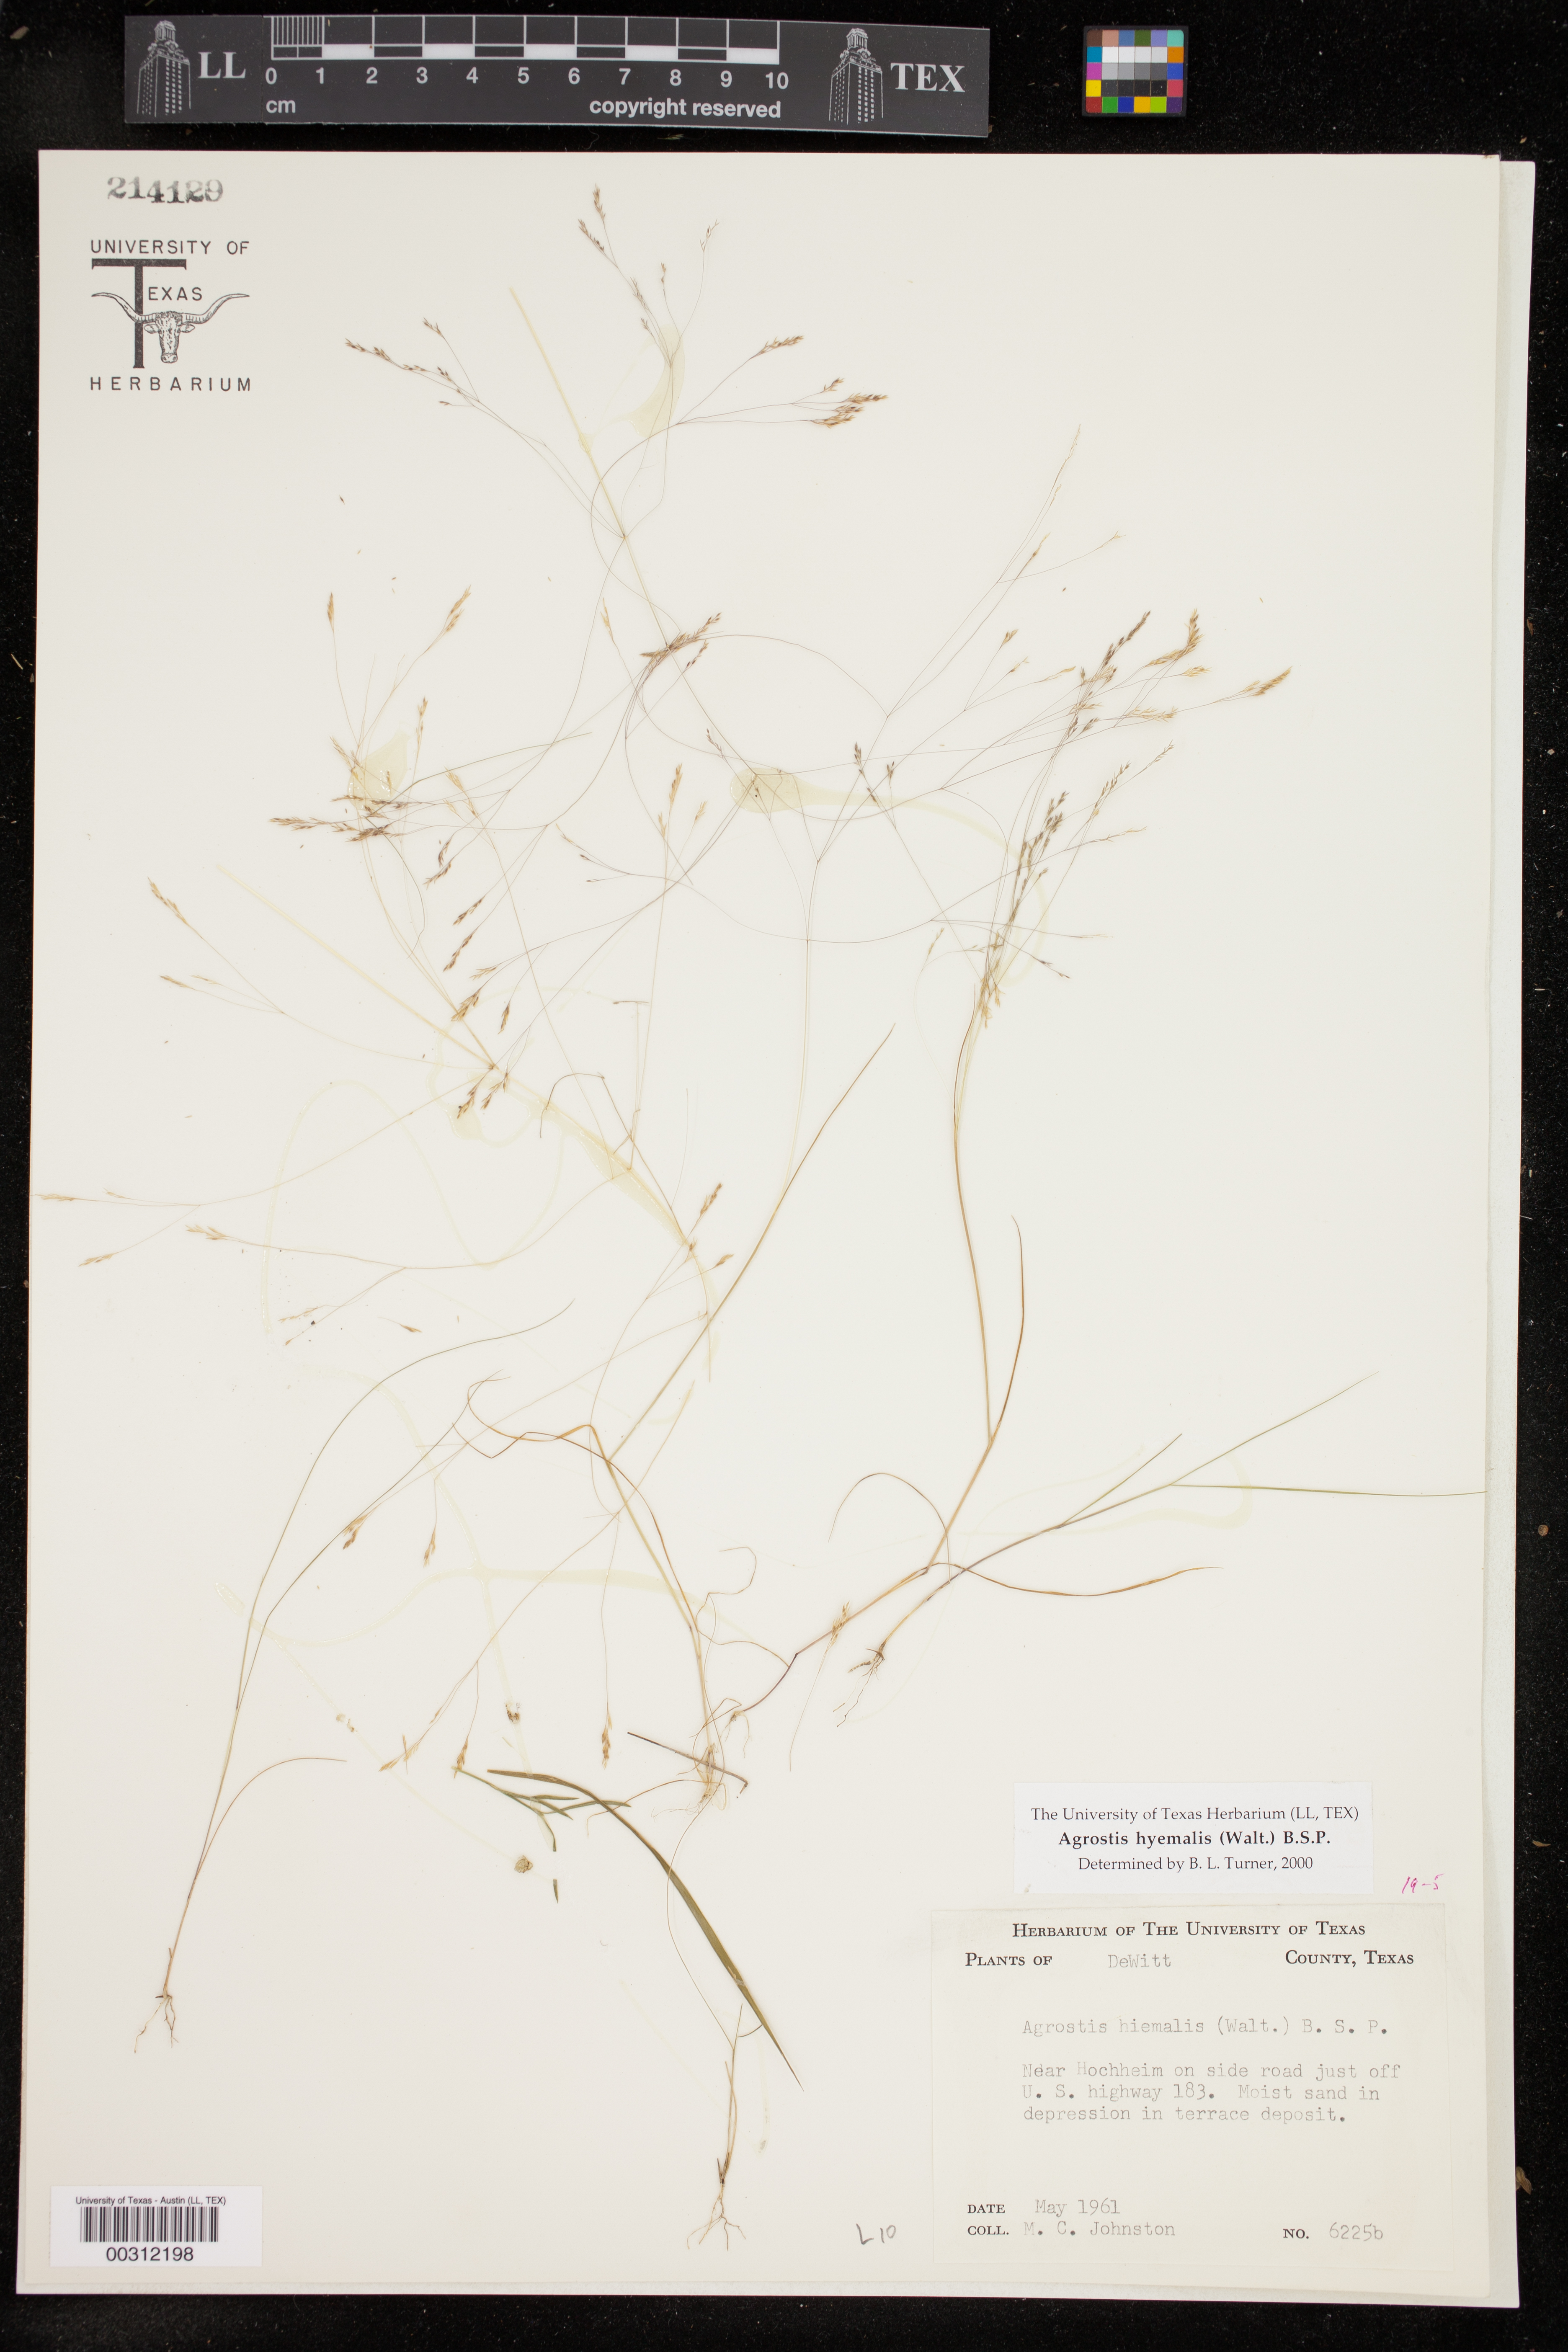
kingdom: Plantae
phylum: Tracheophyta
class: Liliopsida
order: Poales
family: Poaceae
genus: Agrostis
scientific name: Agrostis hyemalis
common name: Small bent
